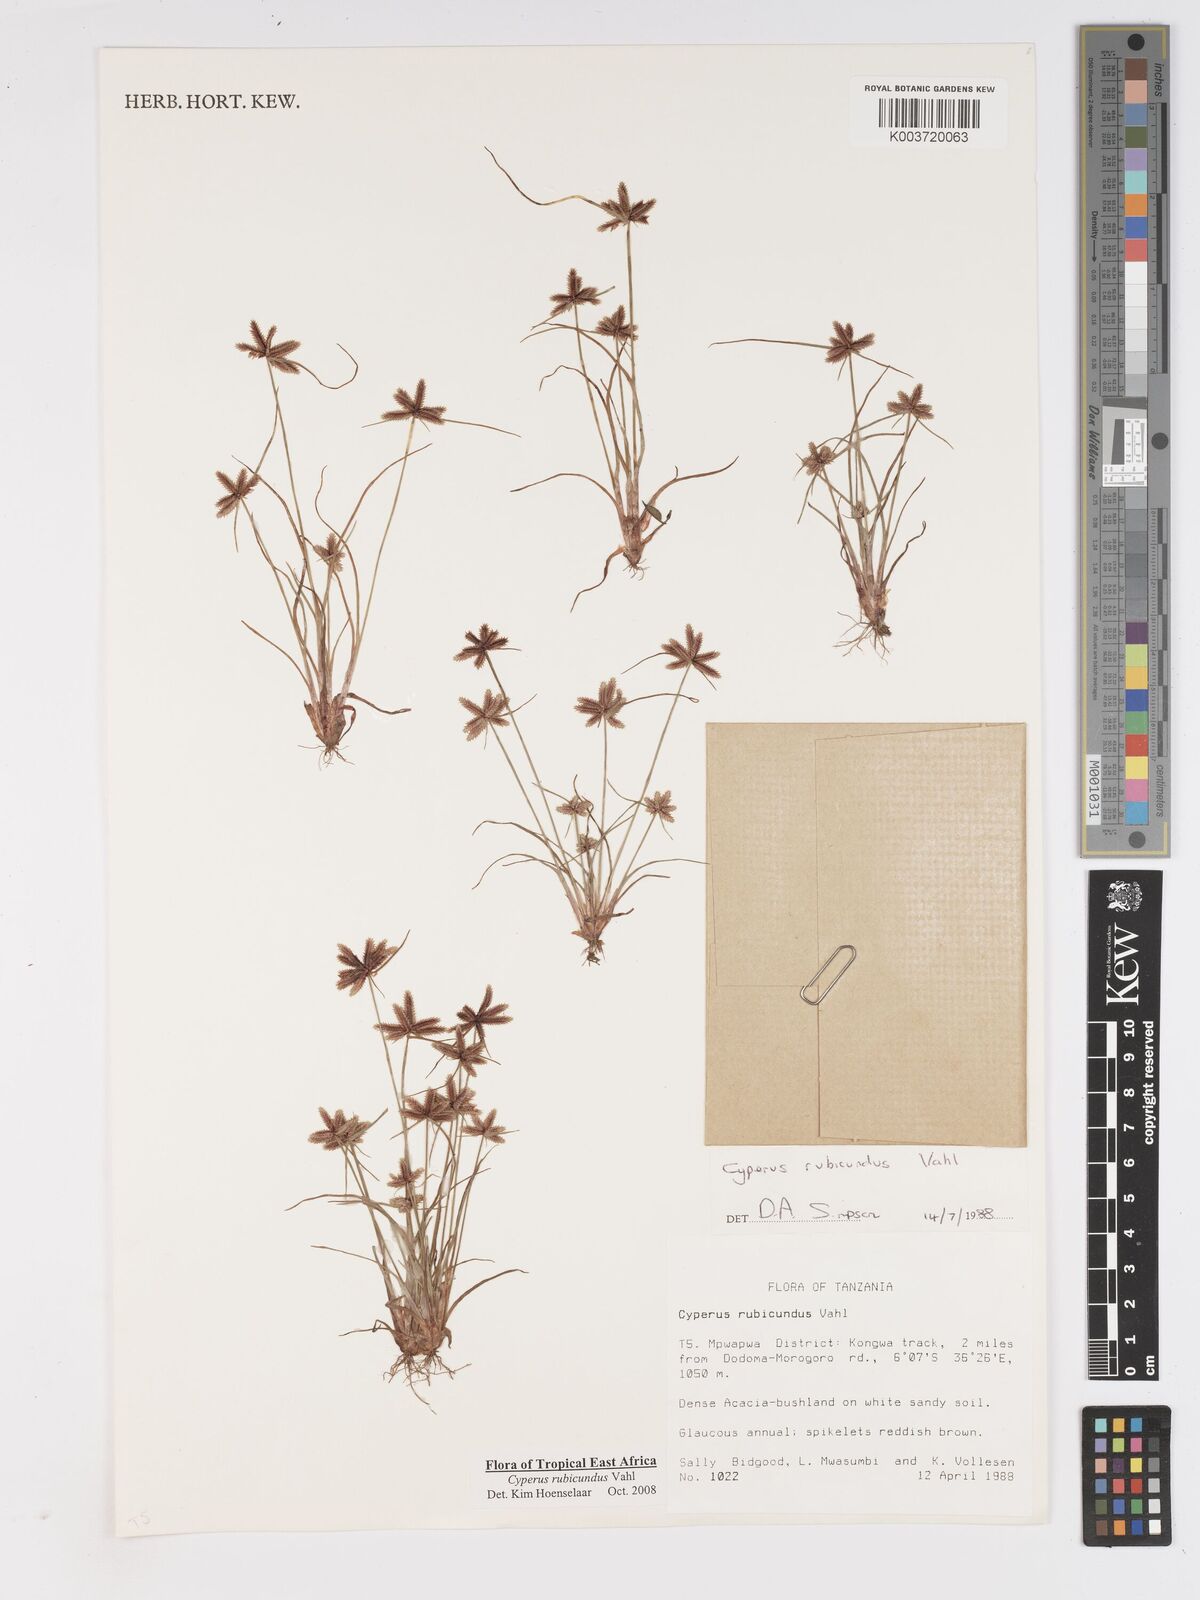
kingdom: Plantae
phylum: Tracheophyta
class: Liliopsida
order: Poales
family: Cyperaceae
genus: Cyperus
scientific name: Cyperus rubicundus
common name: Coco-grass
